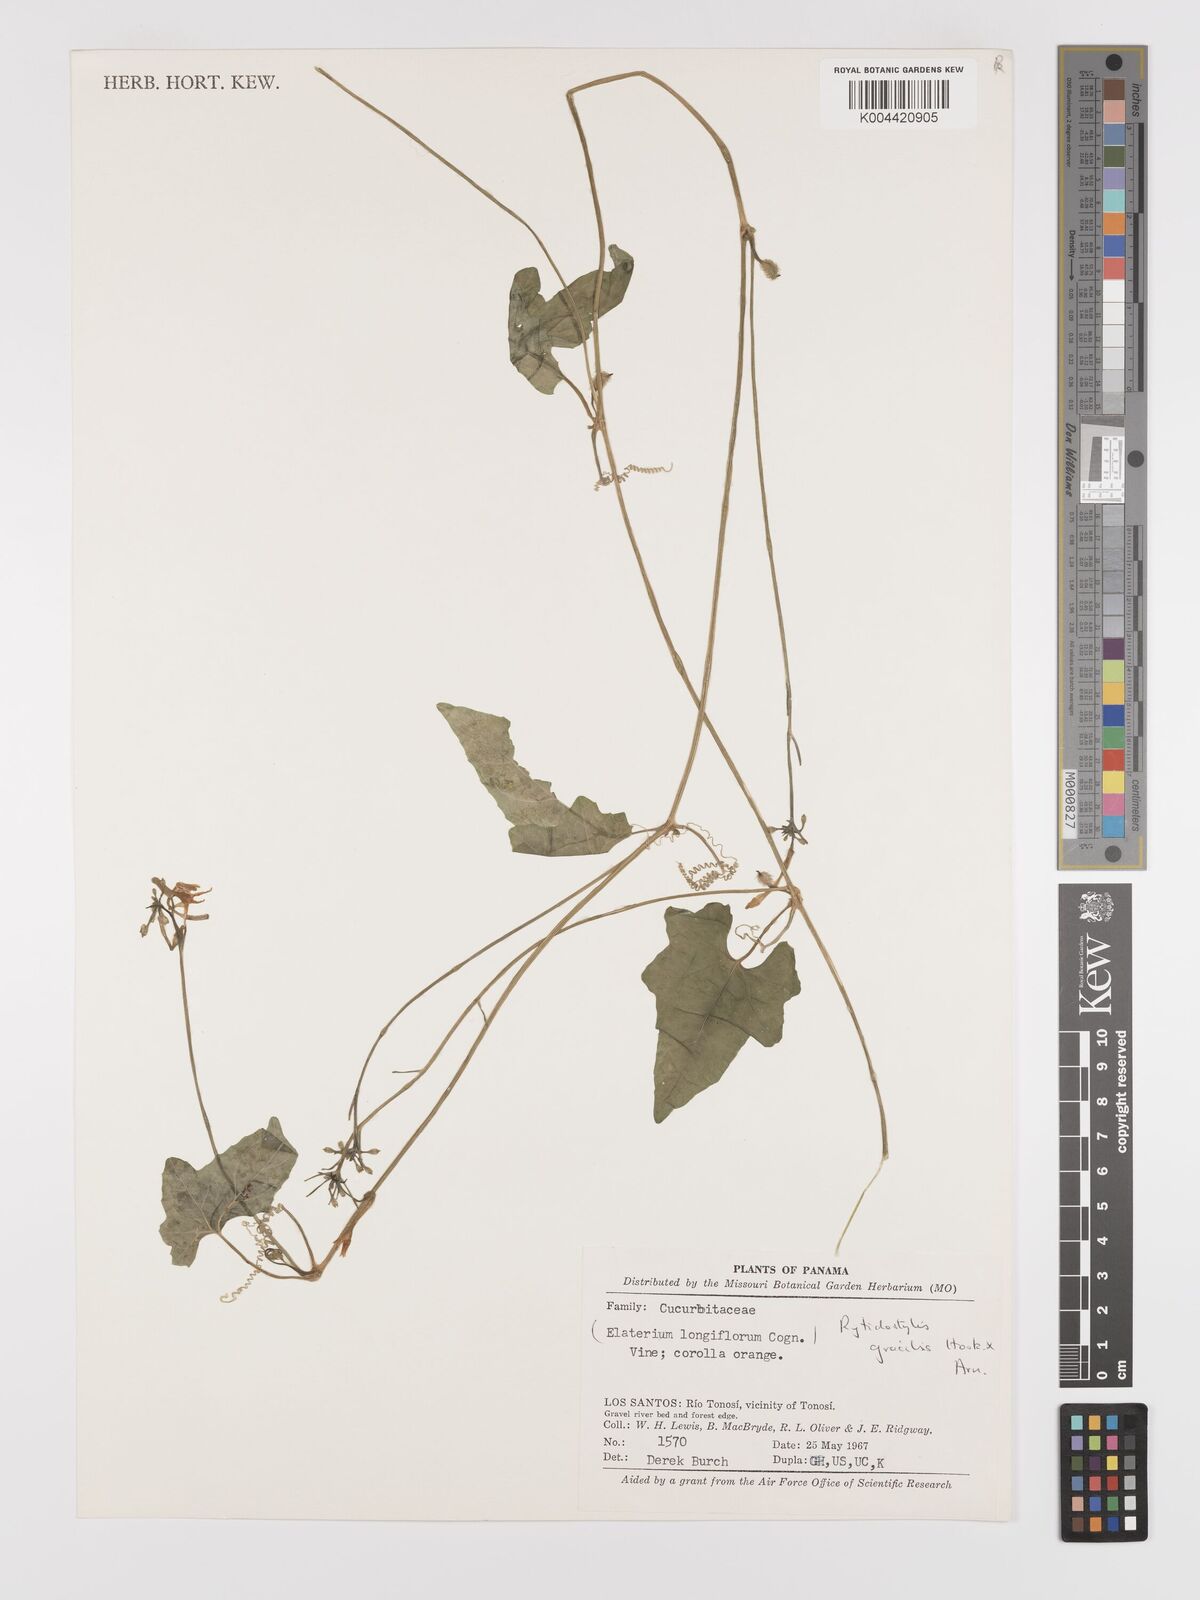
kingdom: Plantae
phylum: Tracheophyta
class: Magnoliopsida
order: Cucurbitales
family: Cucurbitaceae
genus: Cyclanthera
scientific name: Cyclanthera filiformis
